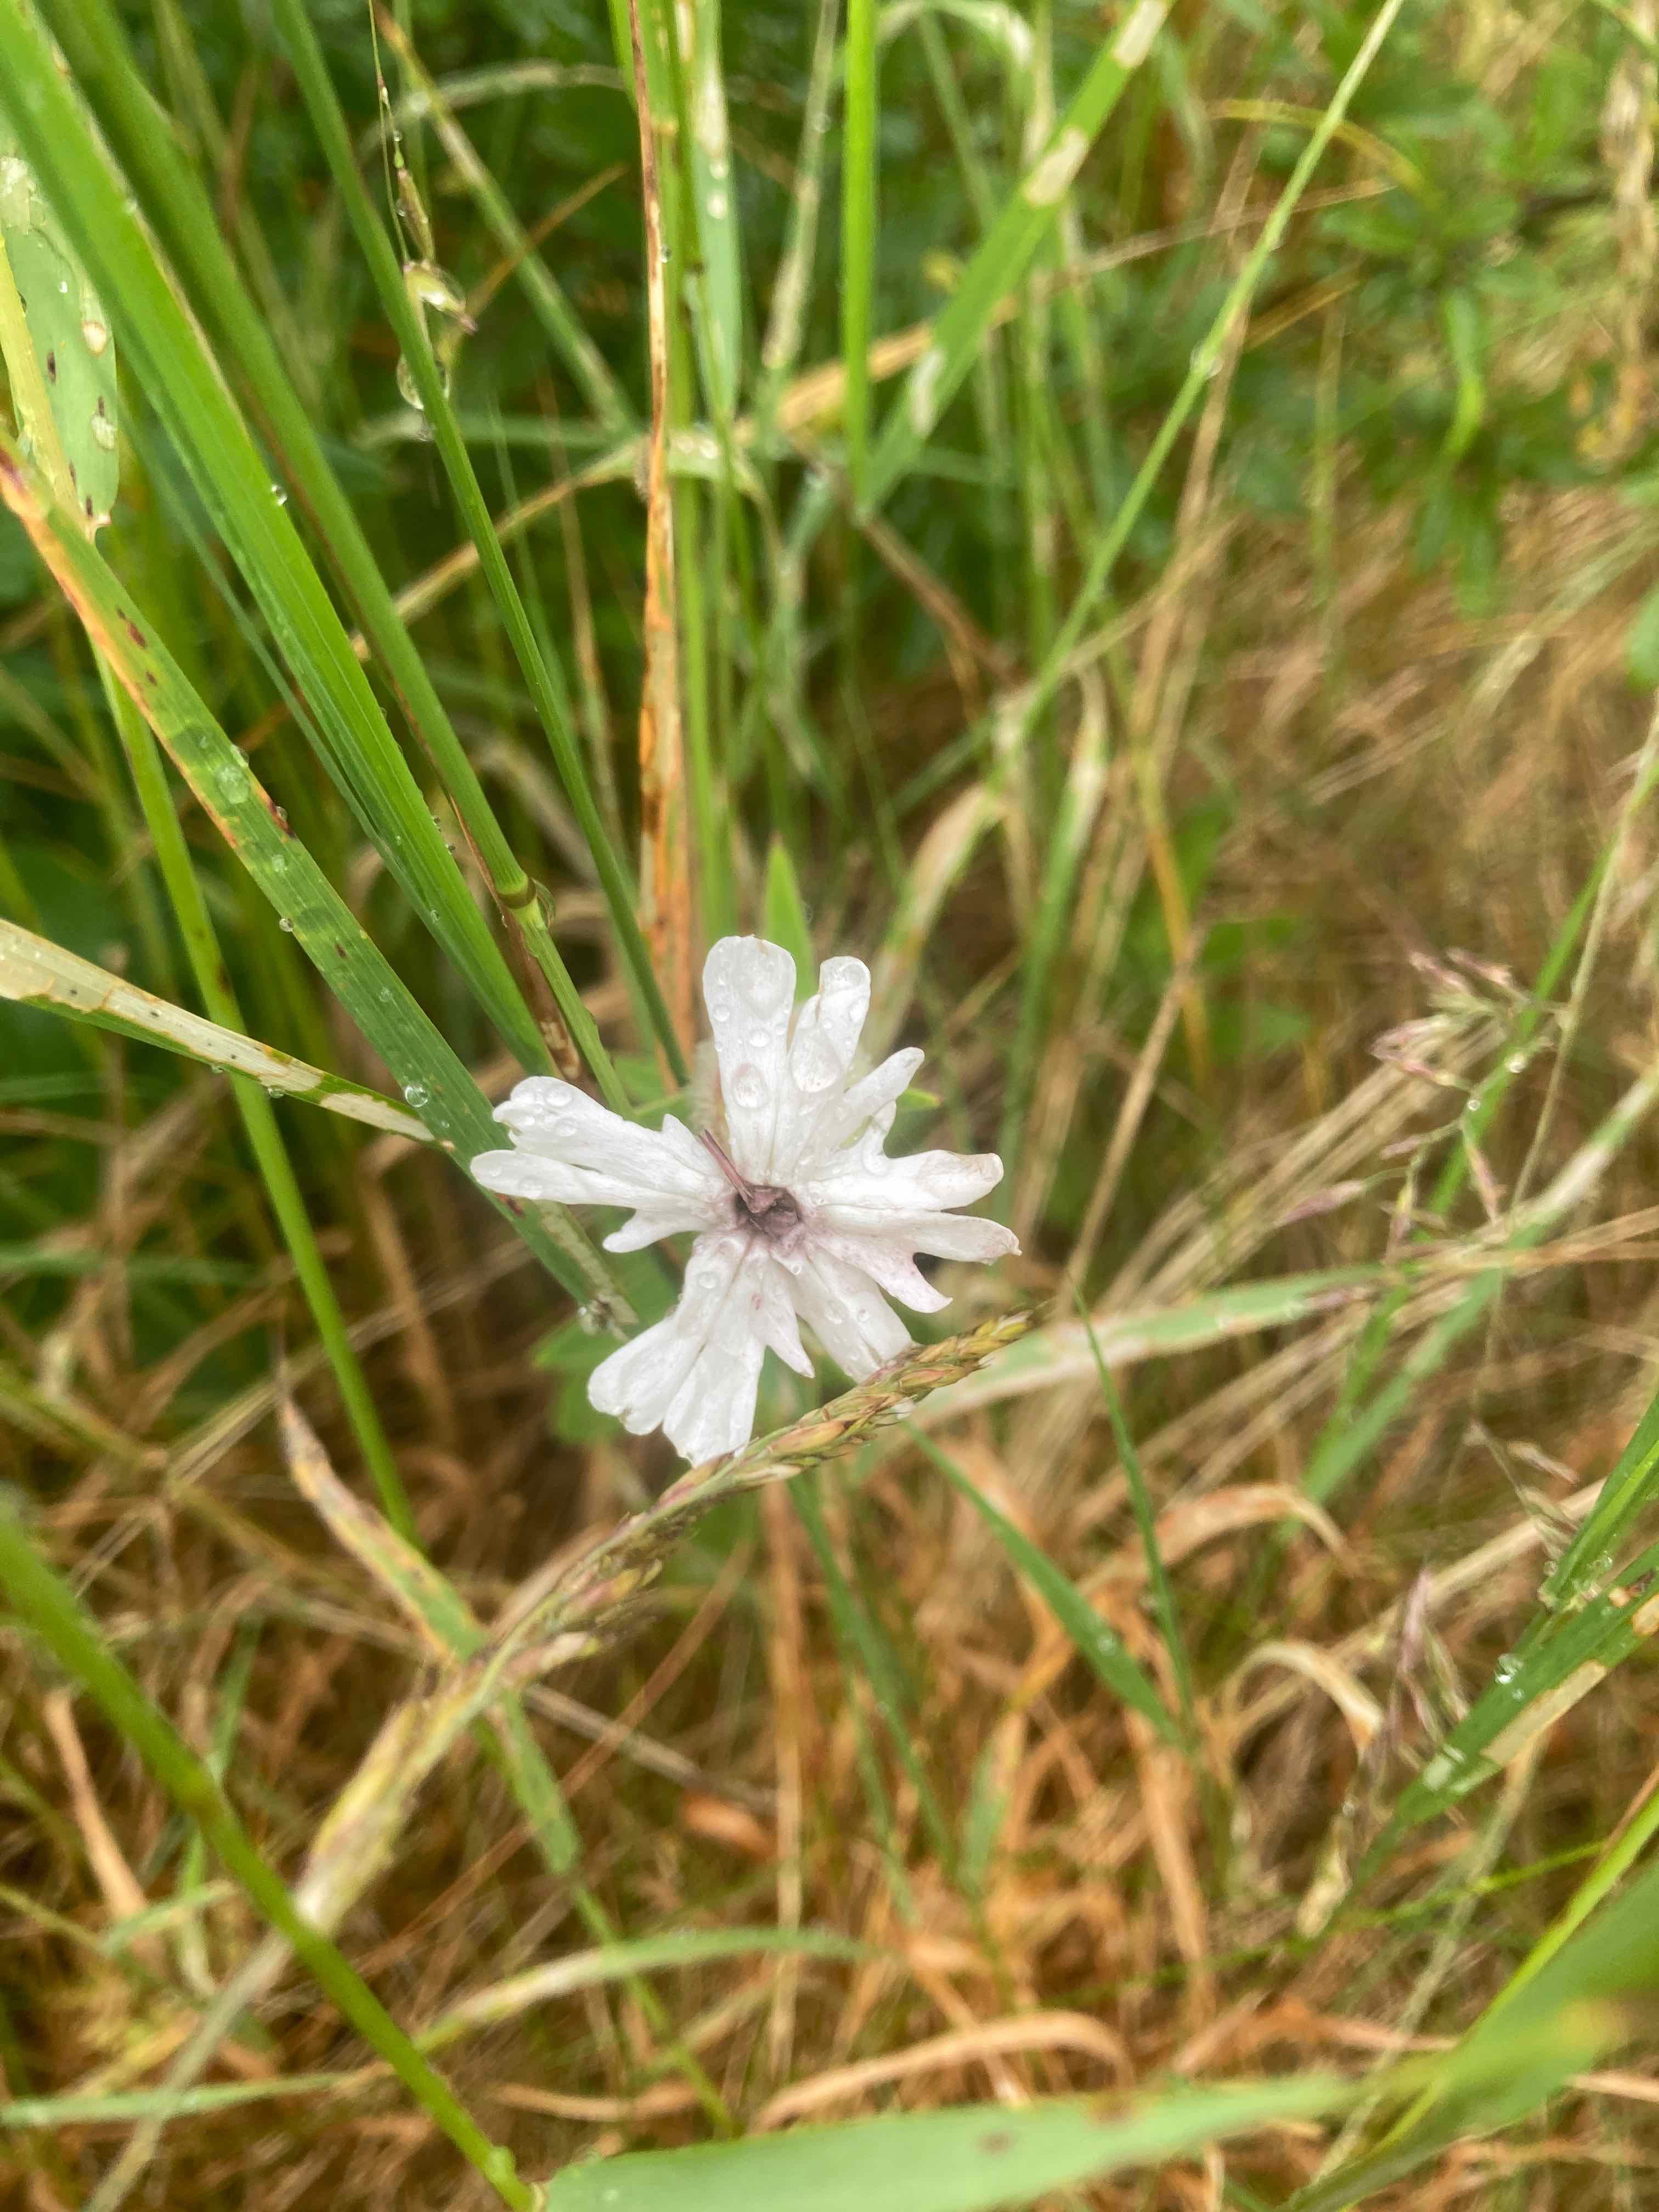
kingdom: Fungi
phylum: Basidiomycota
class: Microbotryomycetes
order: Microbotryales
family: Microbotryaceae
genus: Microbotryum
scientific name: Microbotryum lychnidis-dioicae
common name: Campion anther smut
